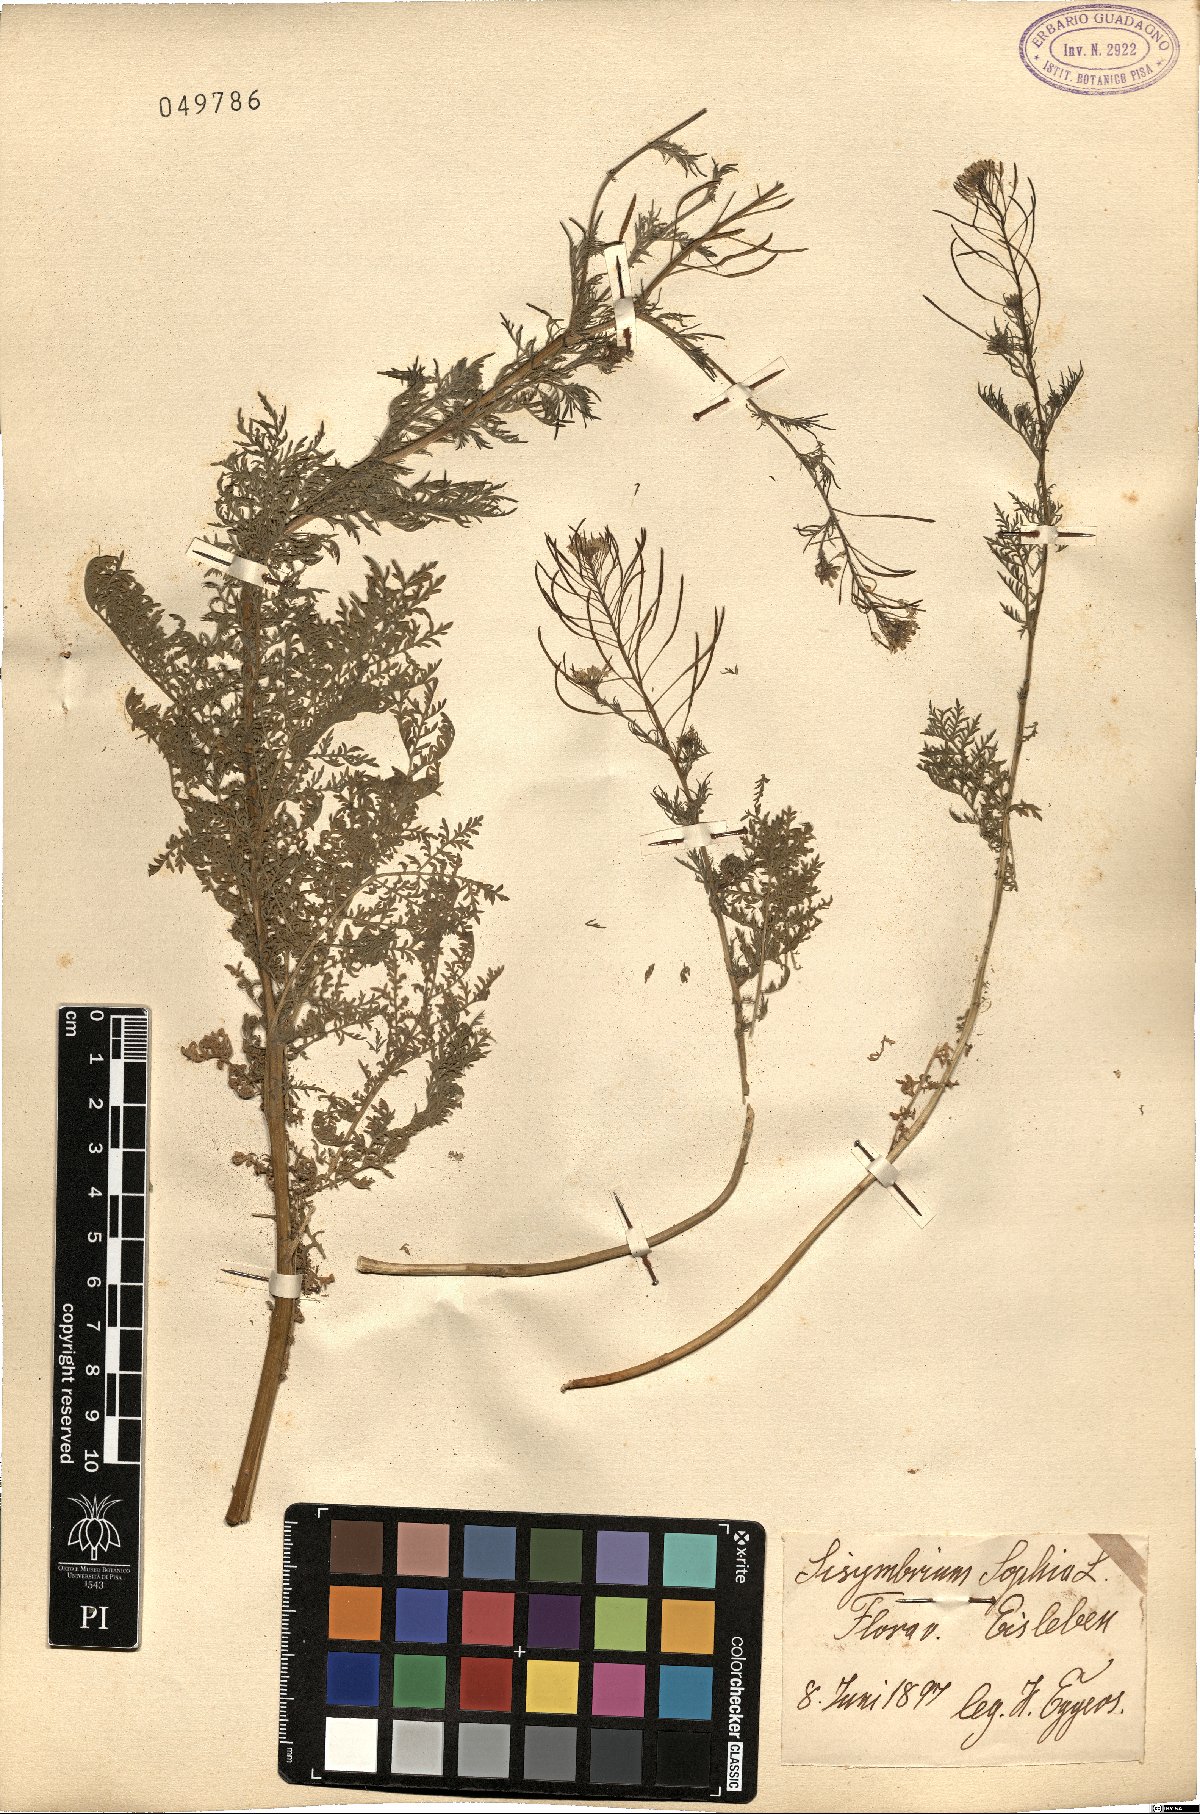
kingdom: Plantae
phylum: Tracheophyta
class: Magnoliopsida
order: Brassicales
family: Brassicaceae
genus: Descurainia
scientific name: Descurainia sophia
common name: Flixweed
